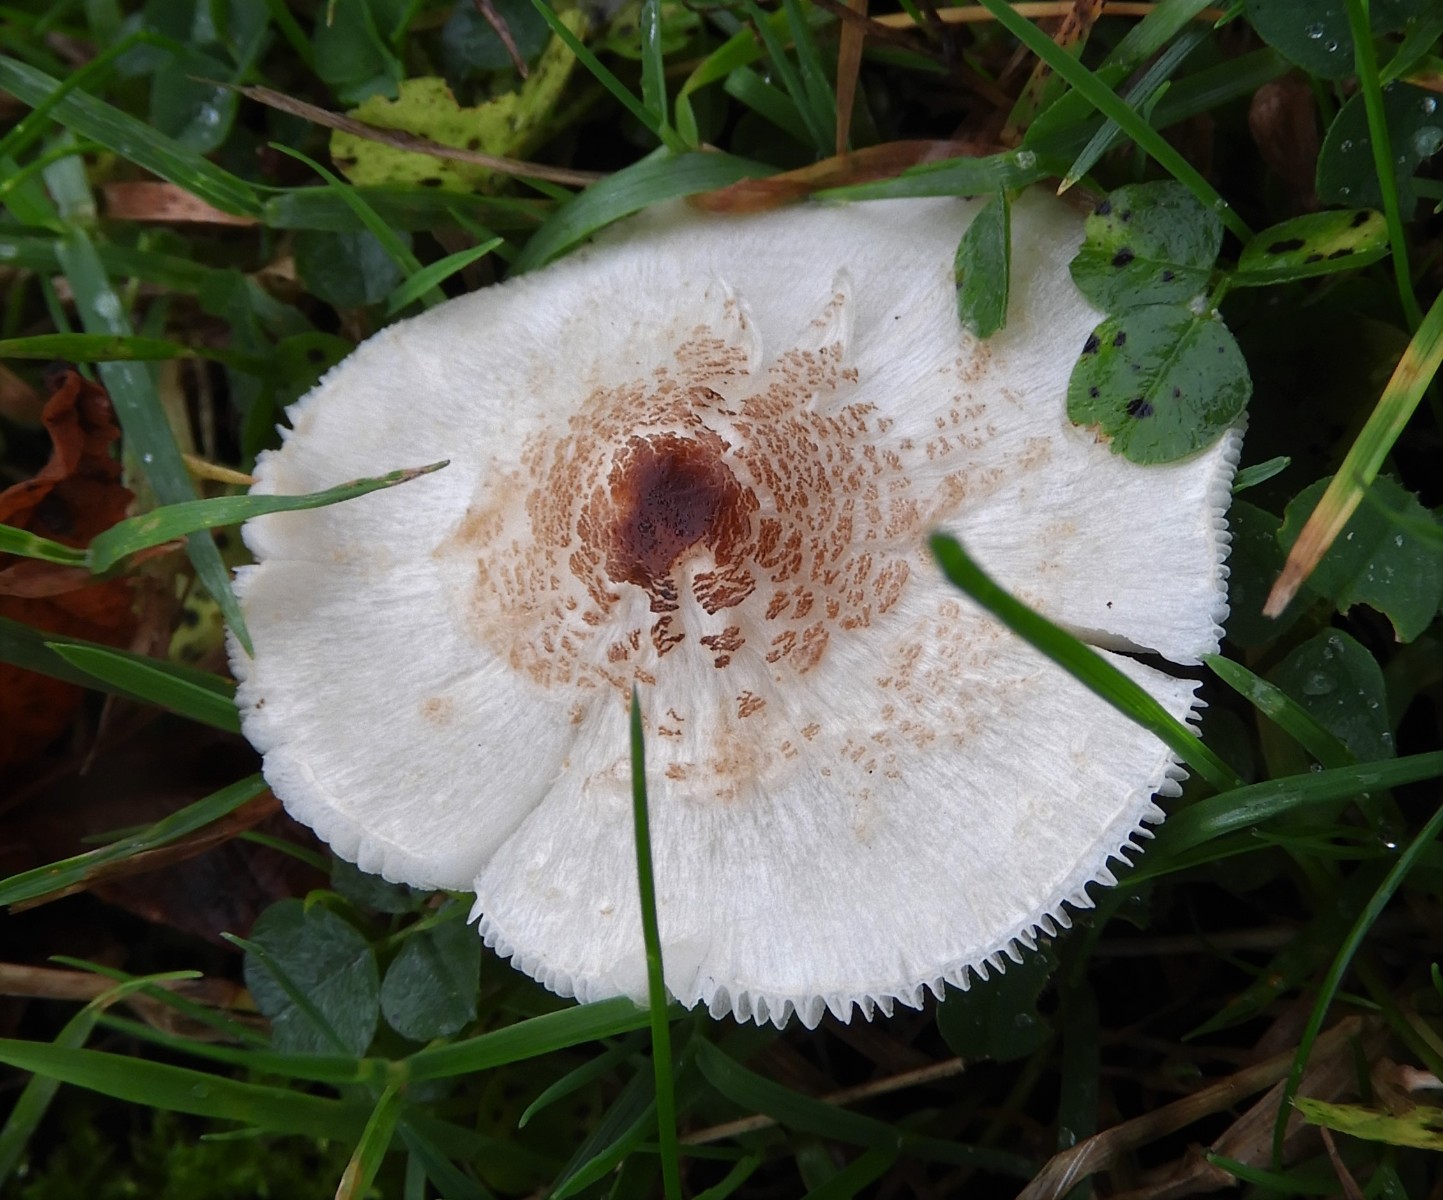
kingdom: Fungi
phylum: Basidiomycota
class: Agaricomycetes
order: Agaricales
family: Agaricaceae
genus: Lepiota
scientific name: Lepiota cristata
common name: stinkende parasolhat
